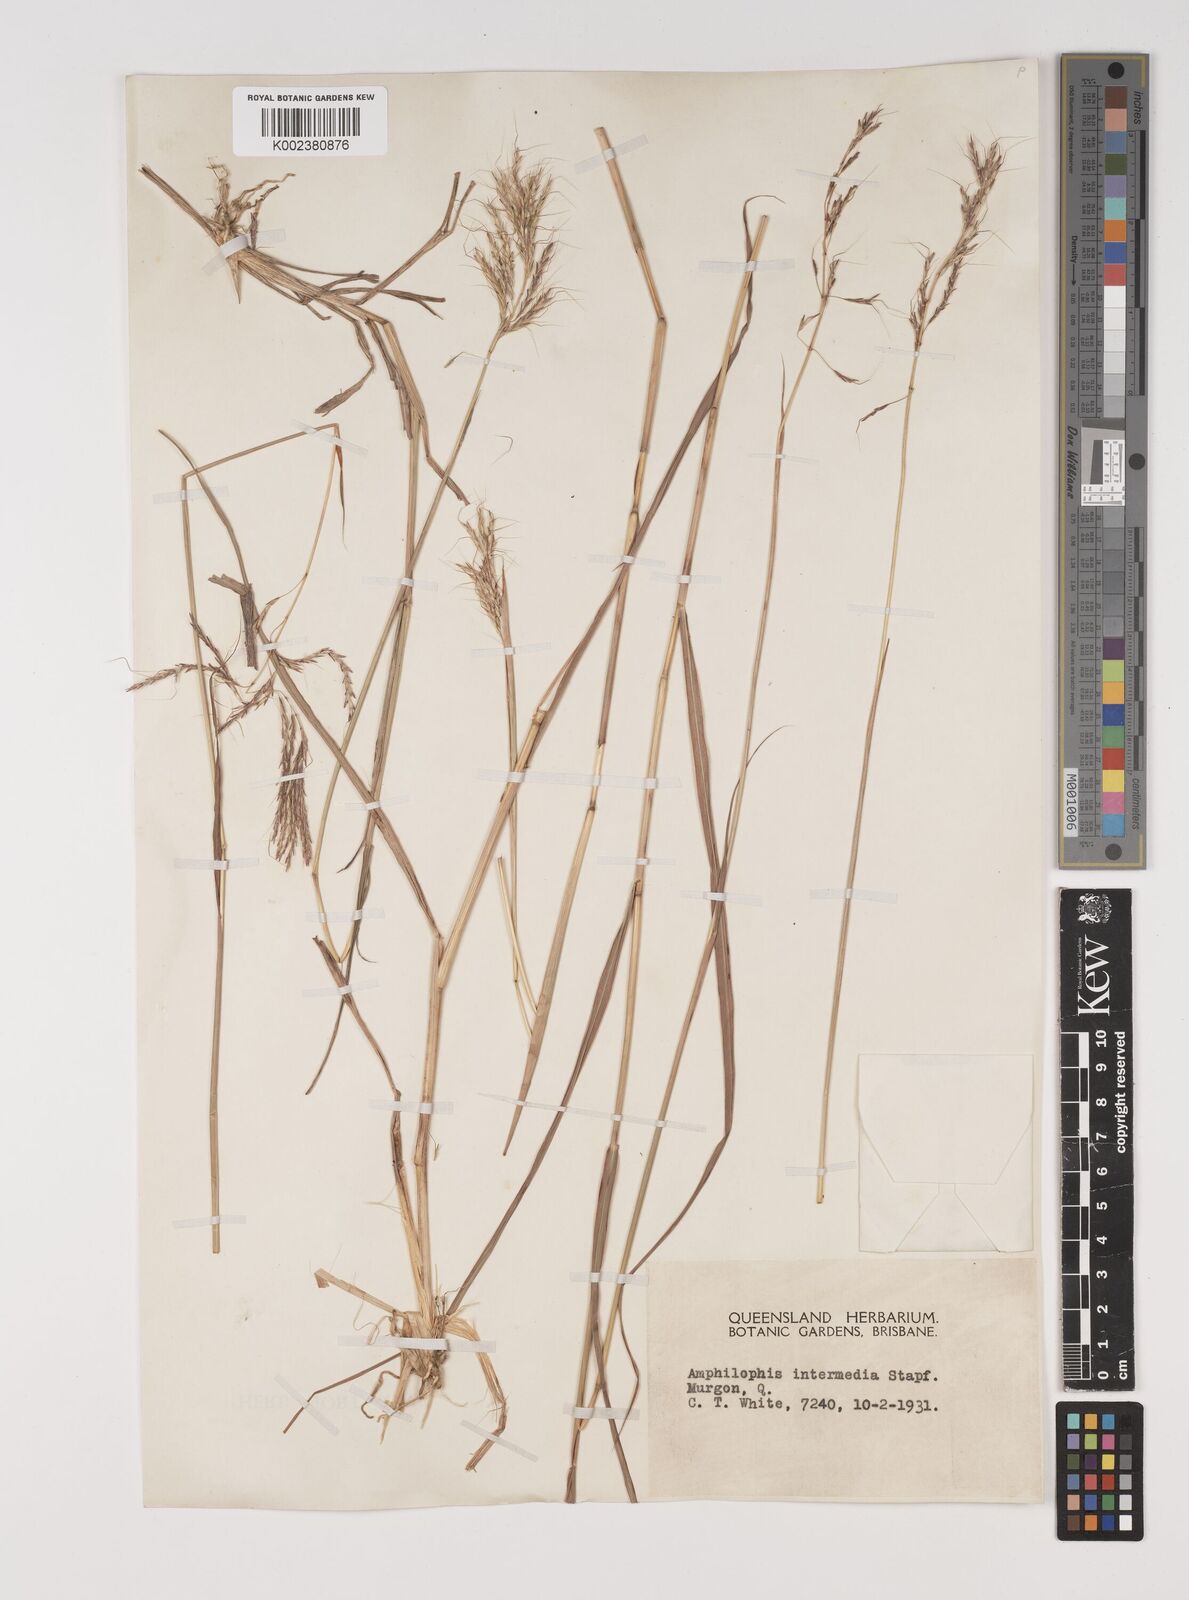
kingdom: Plantae
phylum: Tracheophyta
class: Liliopsida
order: Poales
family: Poaceae
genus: Bothriochloa
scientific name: Bothriochloa bladhii
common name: Caucasian bluestem
